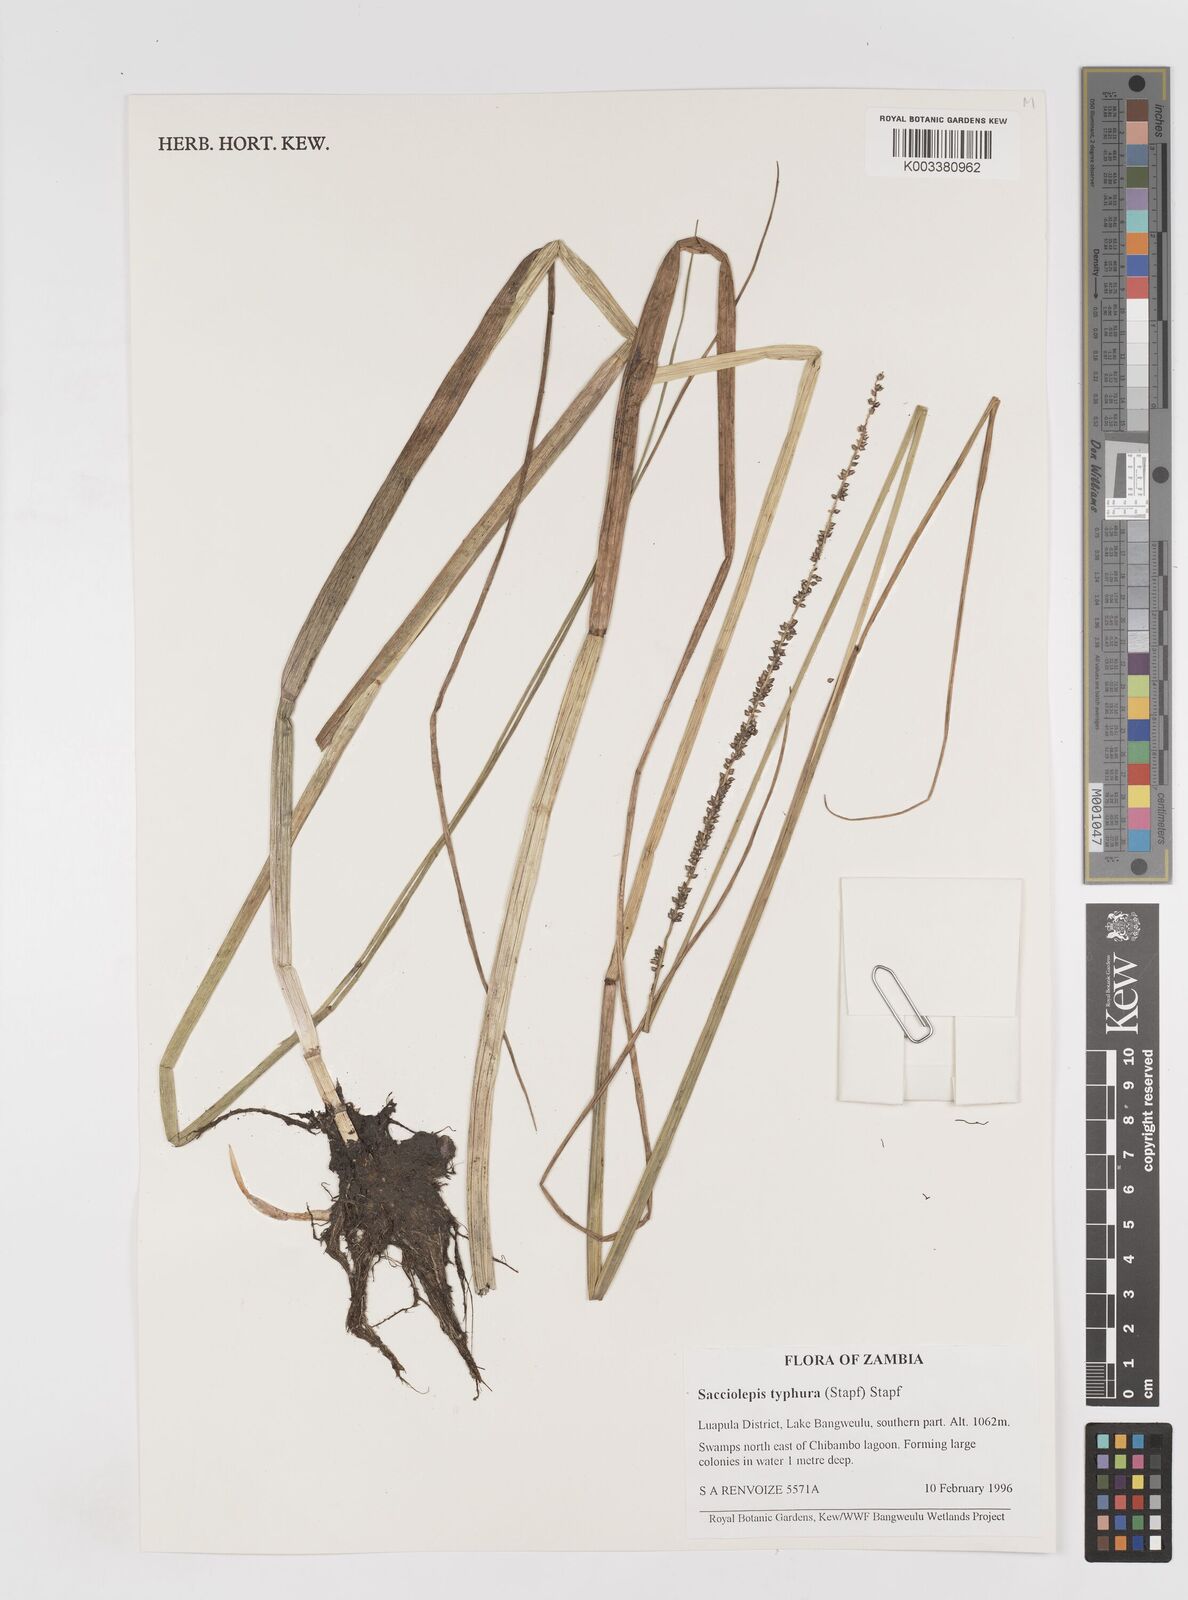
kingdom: Plantae
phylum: Tracheophyta
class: Liliopsida
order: Poales
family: Poaceae
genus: Sacciolepis
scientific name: Sacciolepis typhura
